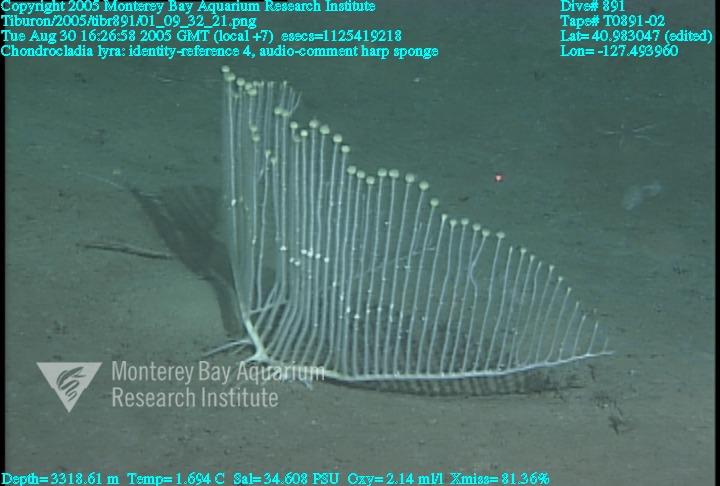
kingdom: Animalia
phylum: Porifera
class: Demospongiae
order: Poecilosclerida
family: Cladorhizidae
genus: Chondrocladia
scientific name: Chondrocladia lyra
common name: Harp sponge
